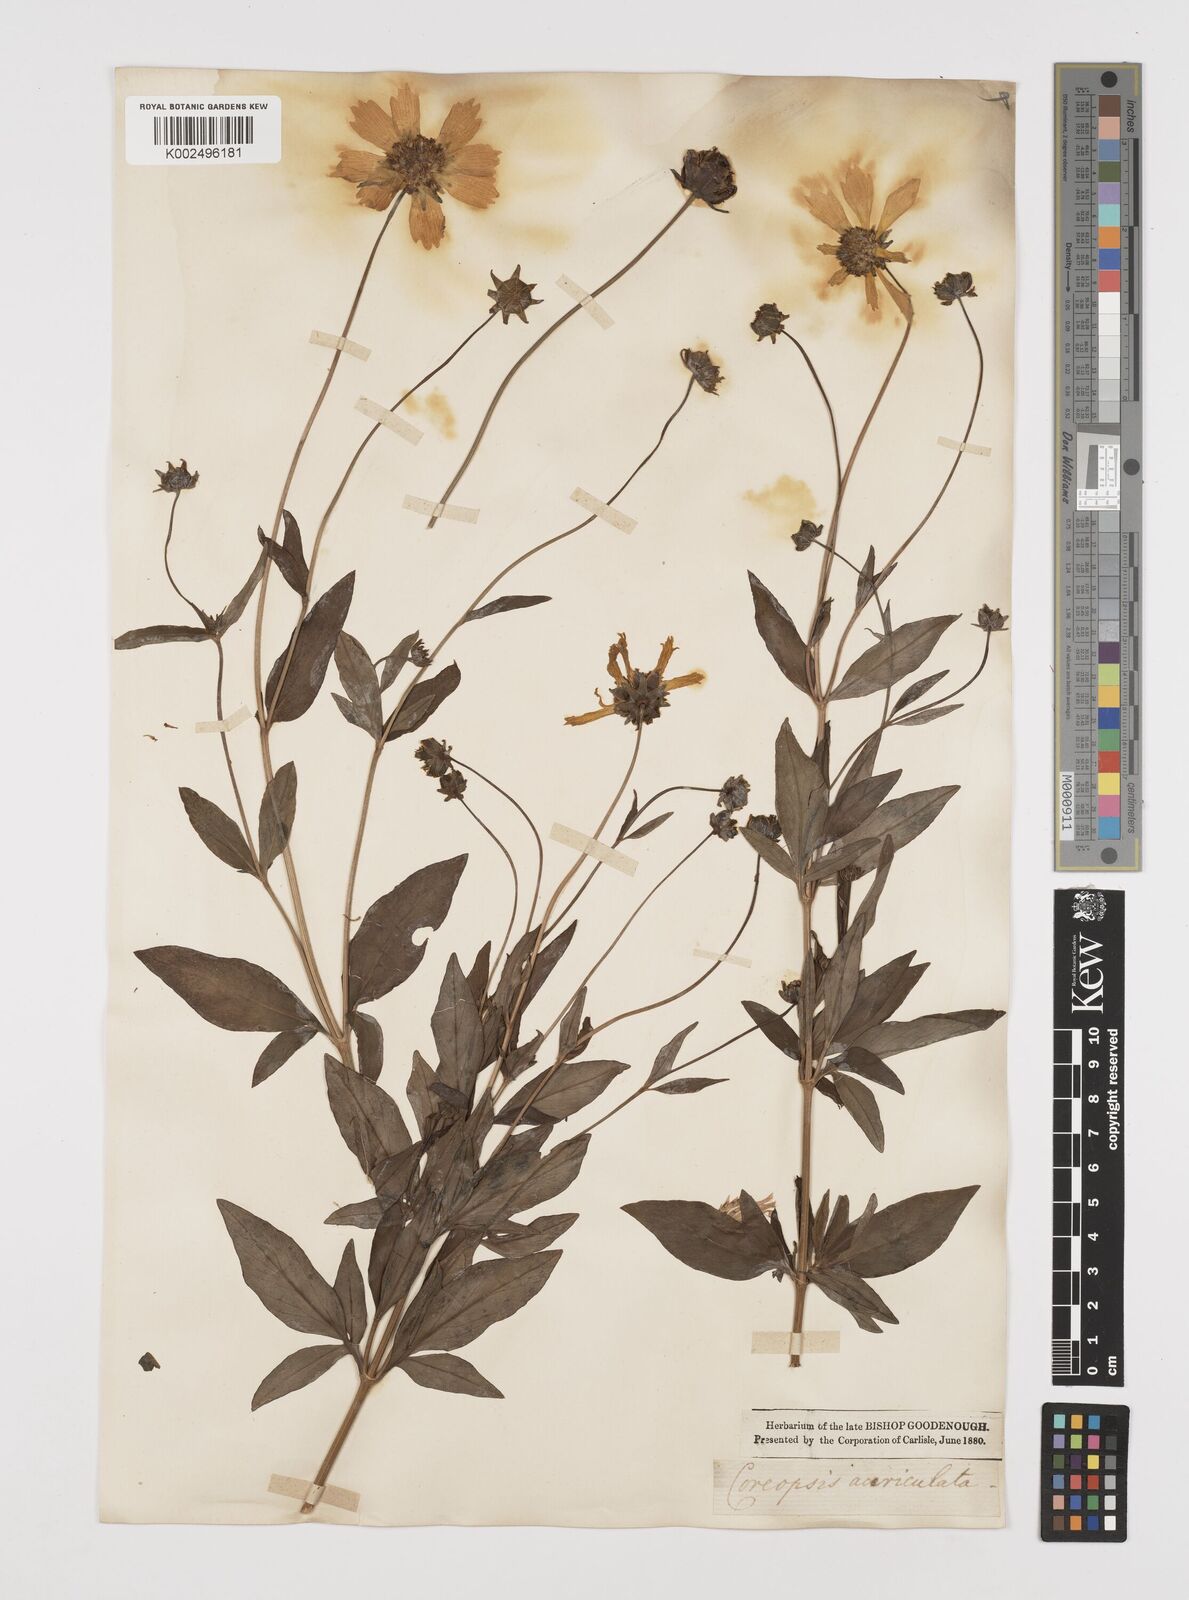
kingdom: Plantae
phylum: Tracheophyta
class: Magnoliopsida
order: Asterales
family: Asteraceae
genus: Coreopsis
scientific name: Coreopsis pubescens
